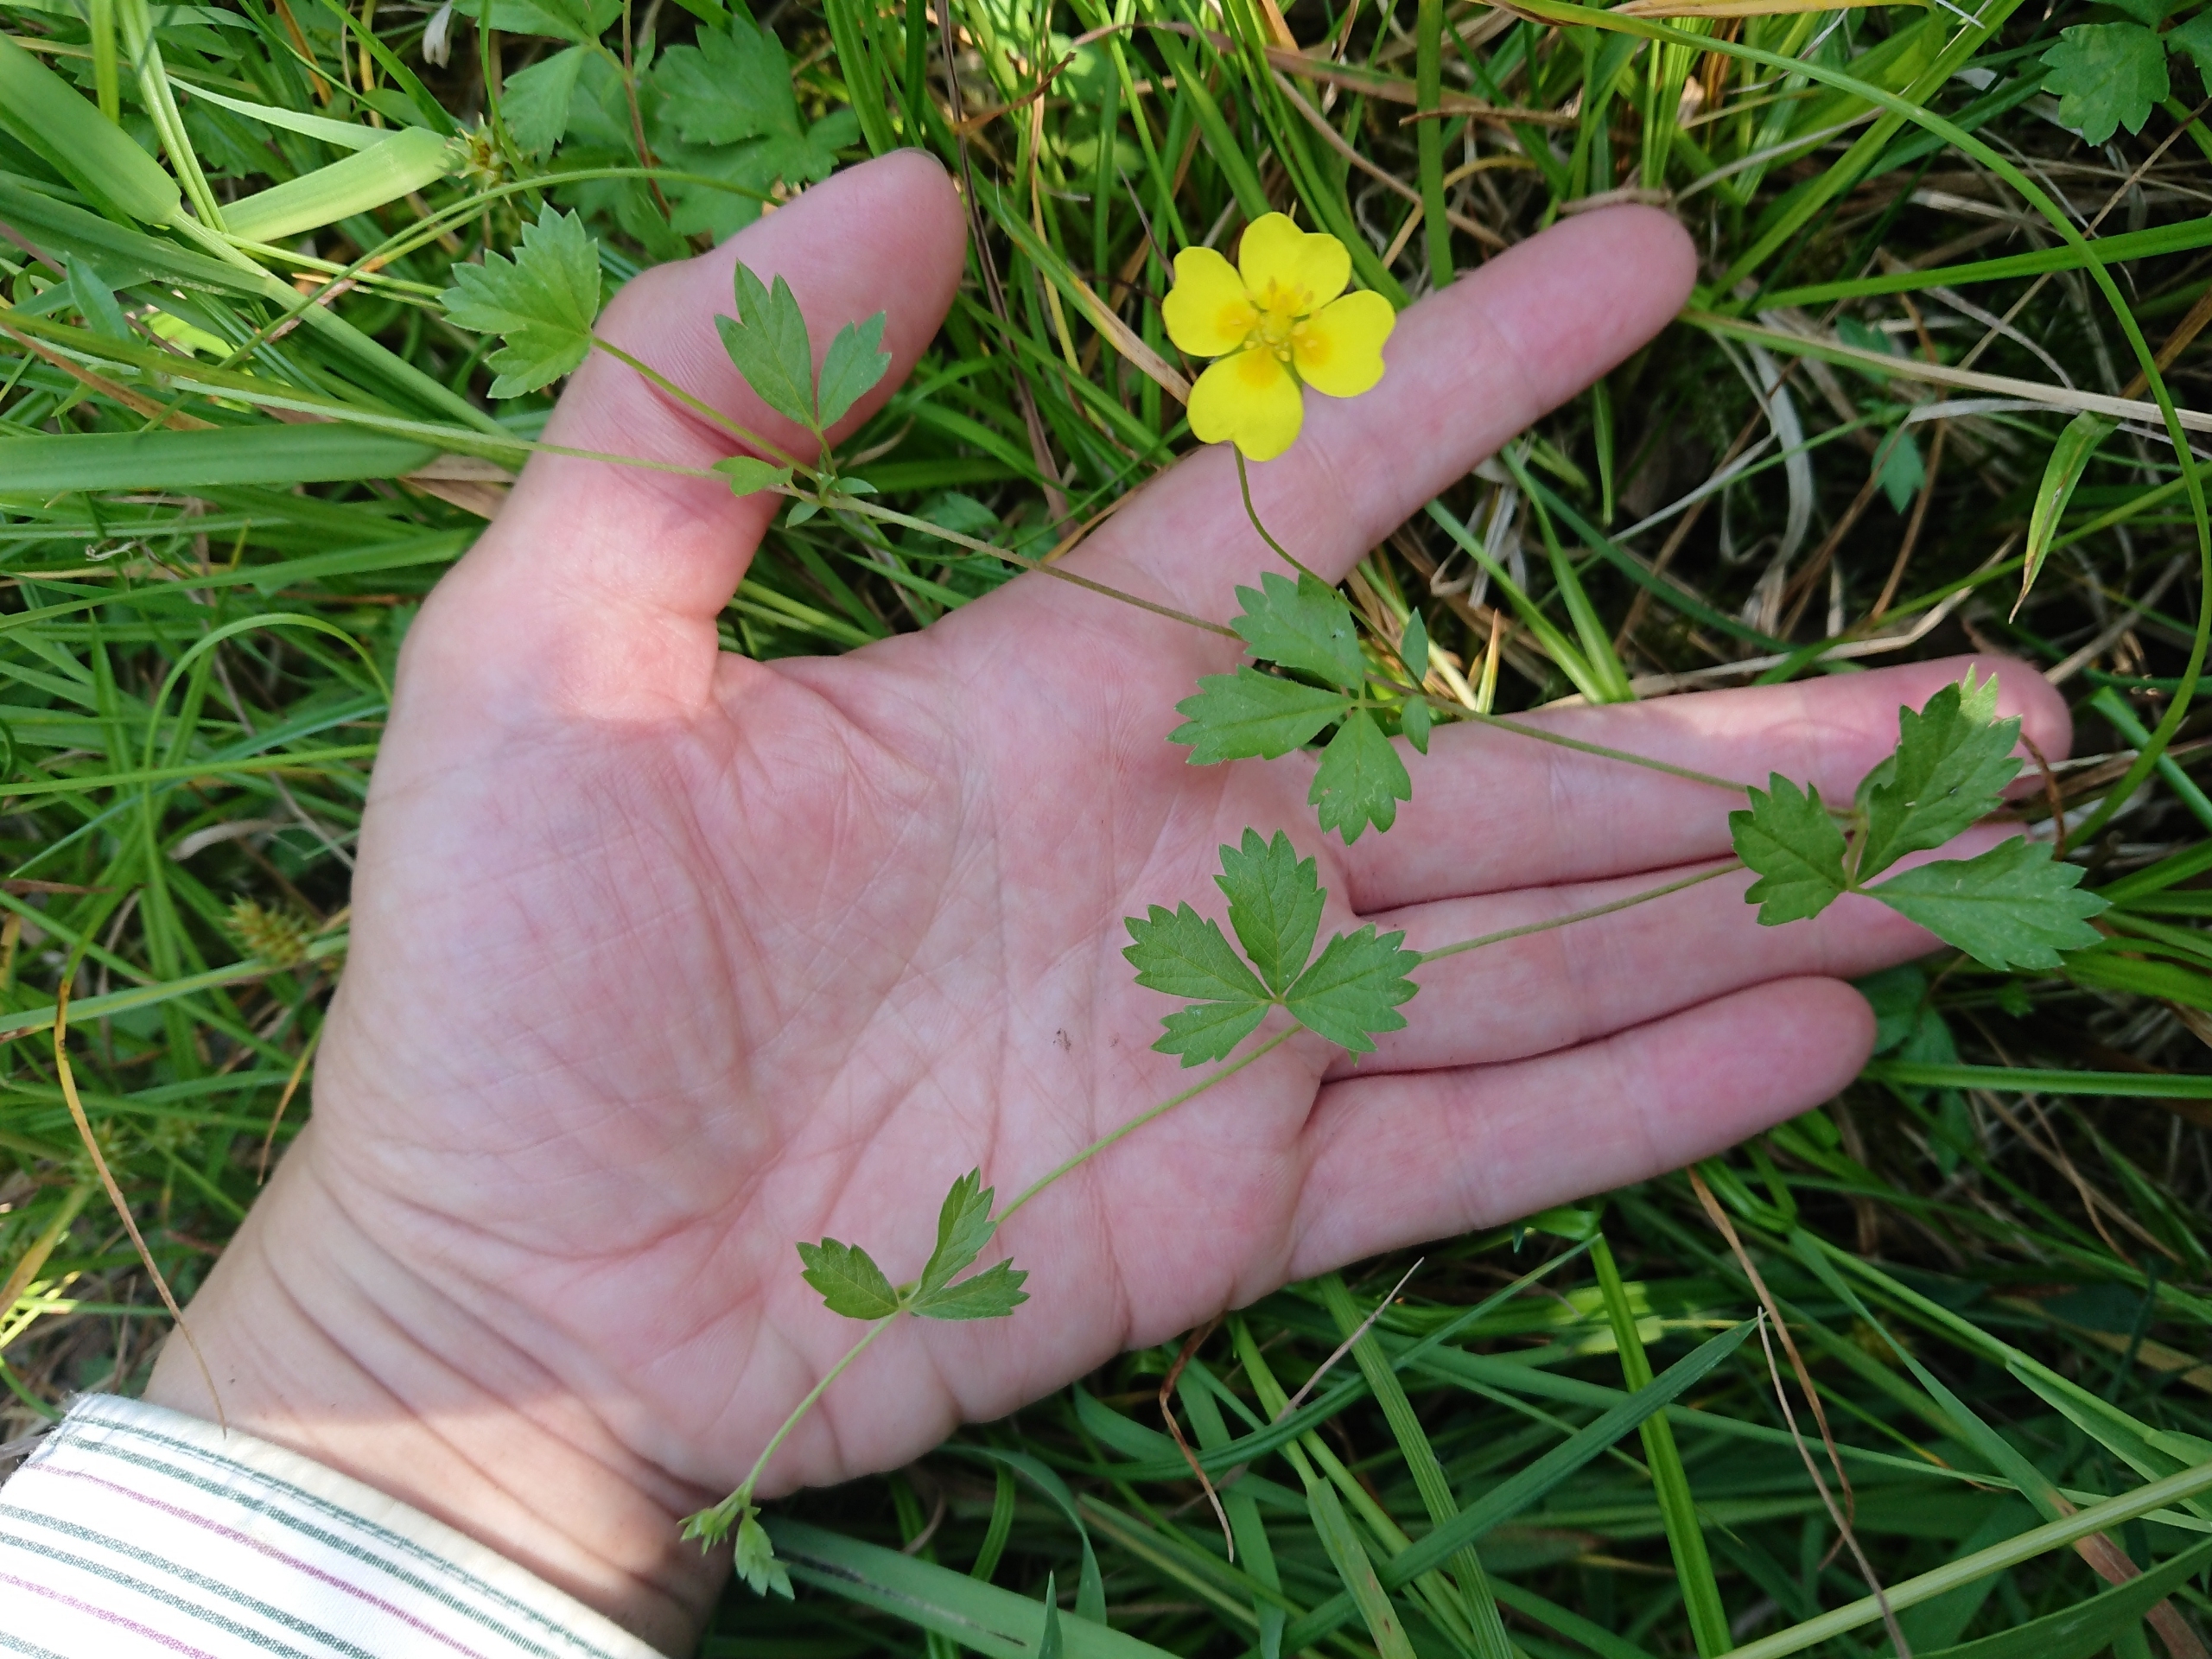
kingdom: Plantae
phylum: Tracheophyta
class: Magnoliopsida
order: Rosales
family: Rosaceae
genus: Potentilla
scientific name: Potentilla anglica
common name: Liggende potentil
